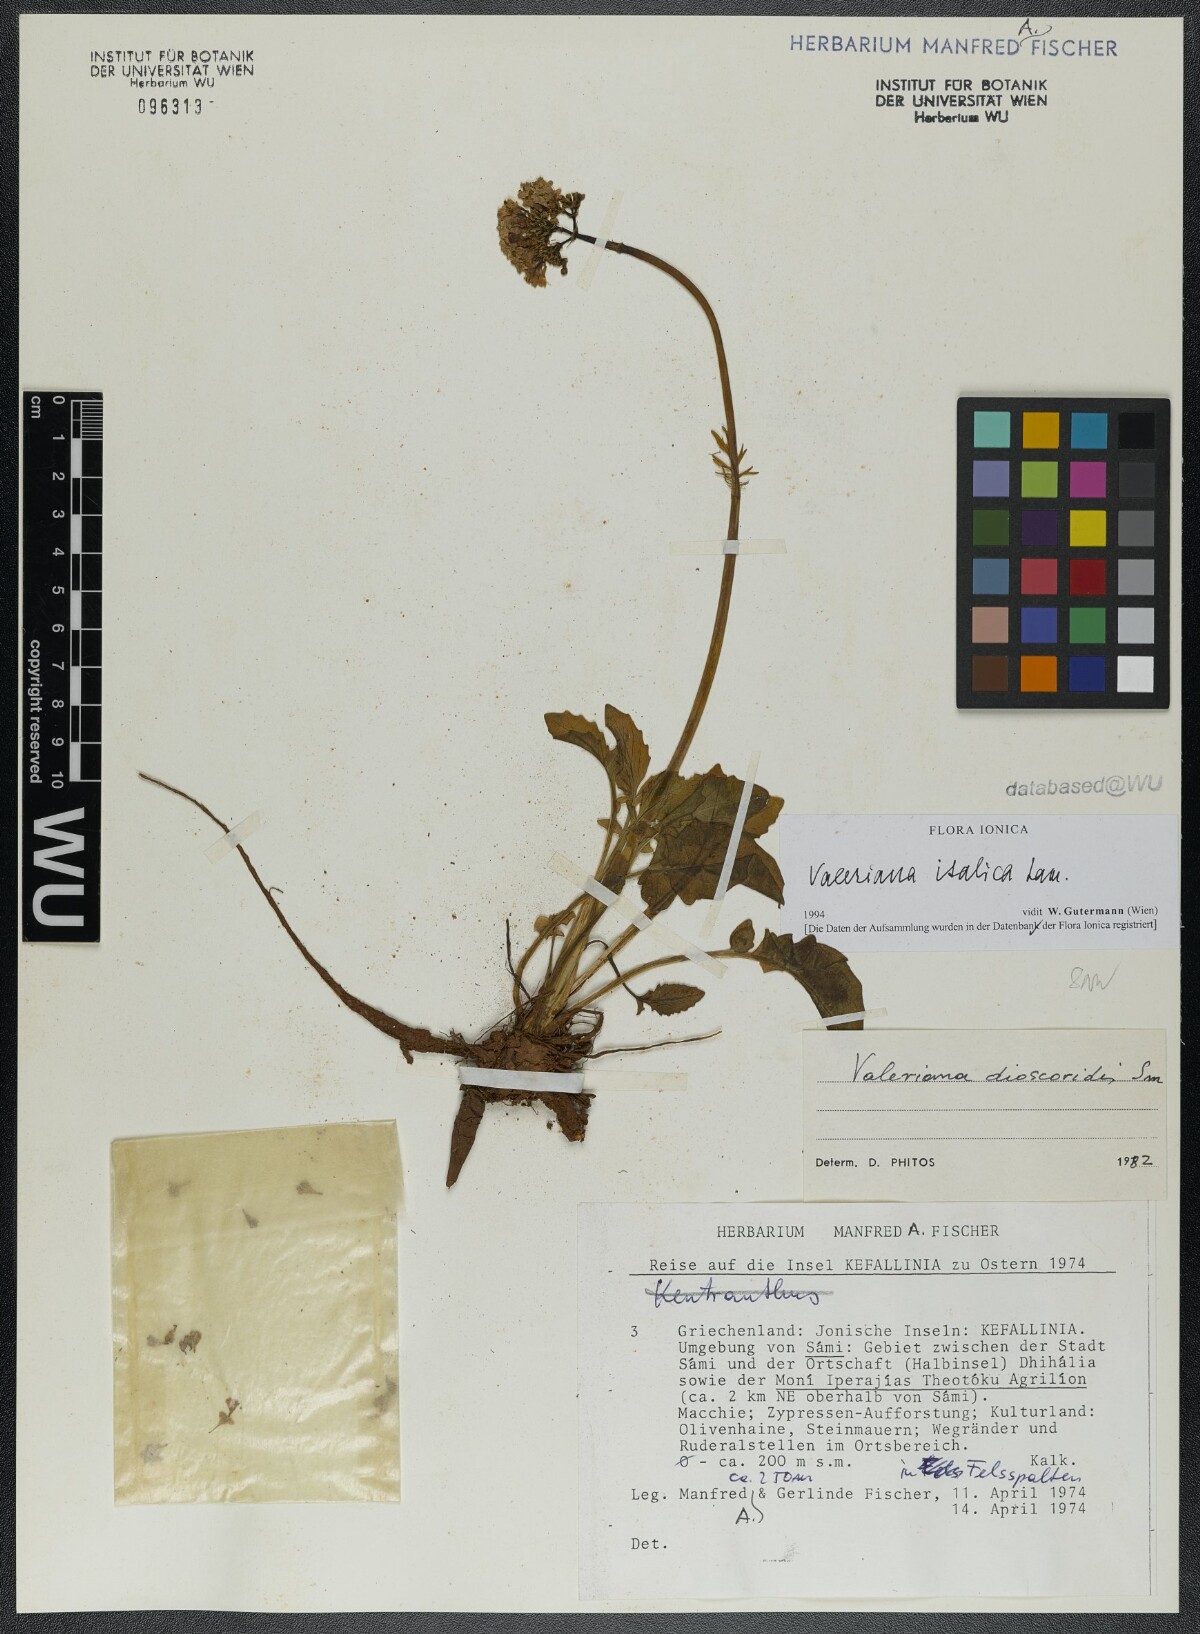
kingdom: Plantae
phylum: Tracheophyta
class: Magnoliopsida
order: Dipsacales
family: Caprifoliaceae
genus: Valeriana
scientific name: Valeriana dioscoridis
